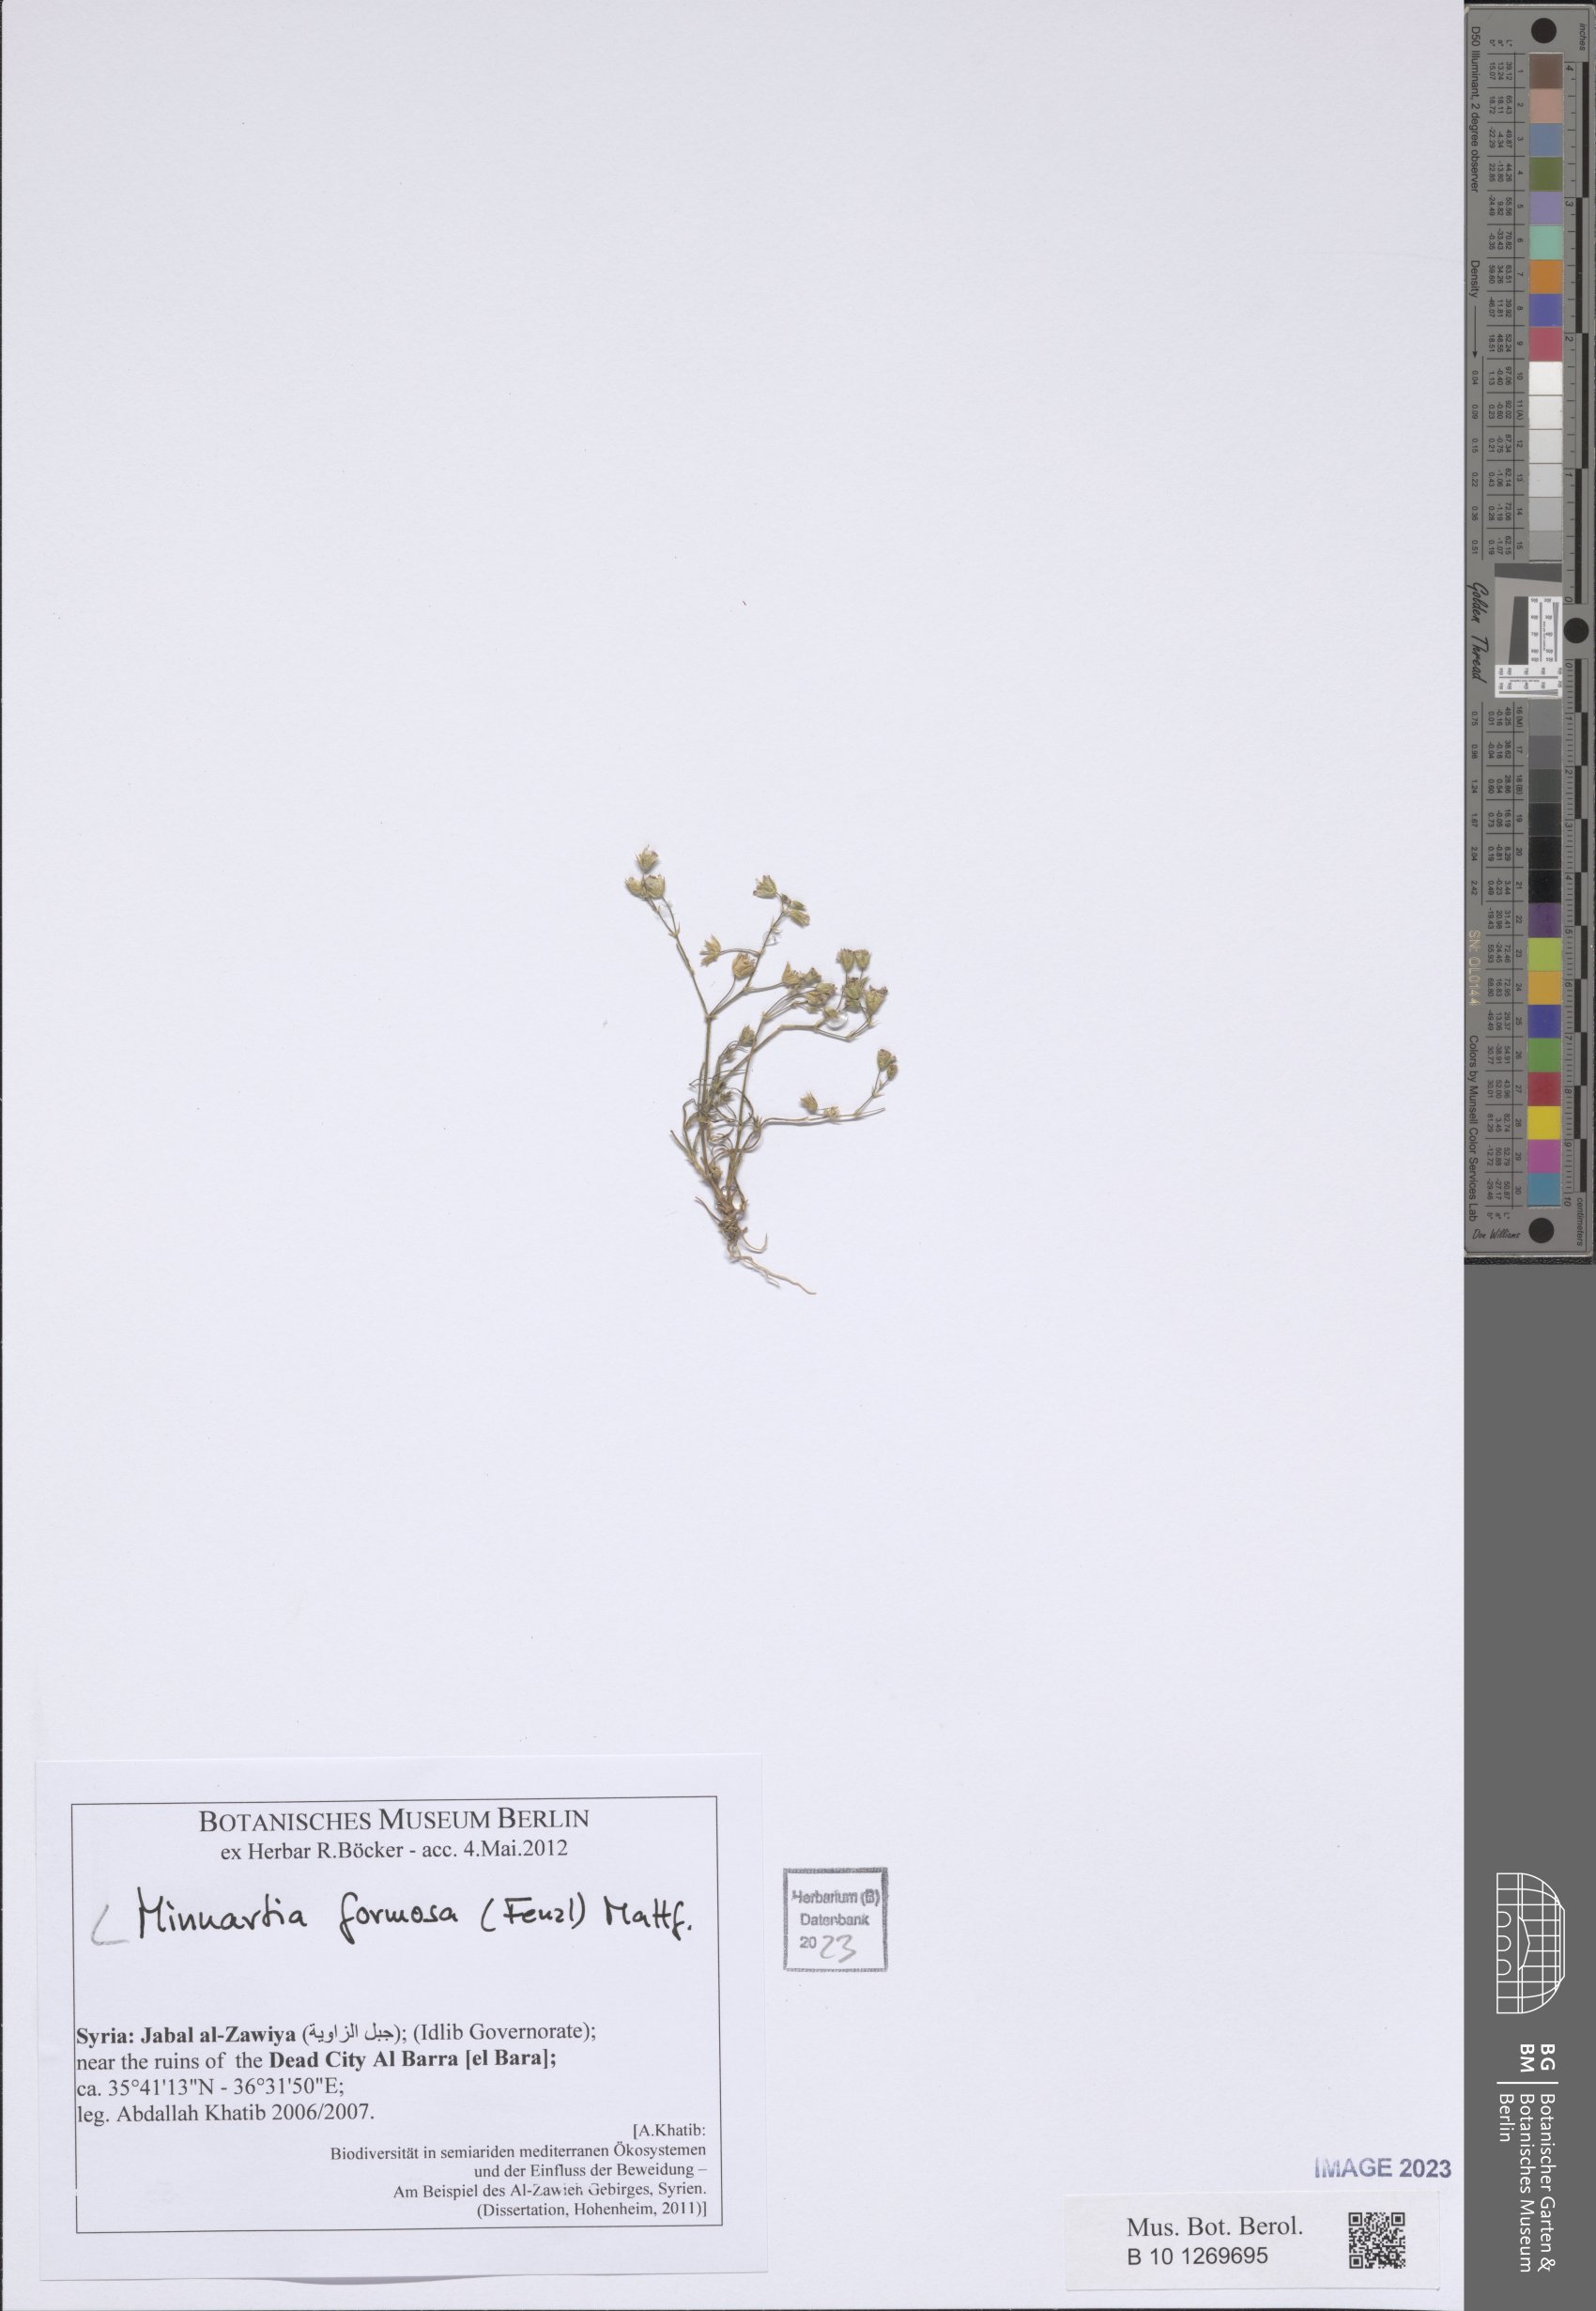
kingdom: Plantae
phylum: Tracheophyta
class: Magnoliopsida
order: Caryophyllales
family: Caryophyllaceae
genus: Eremogone
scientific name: Eremogone minuartioides
